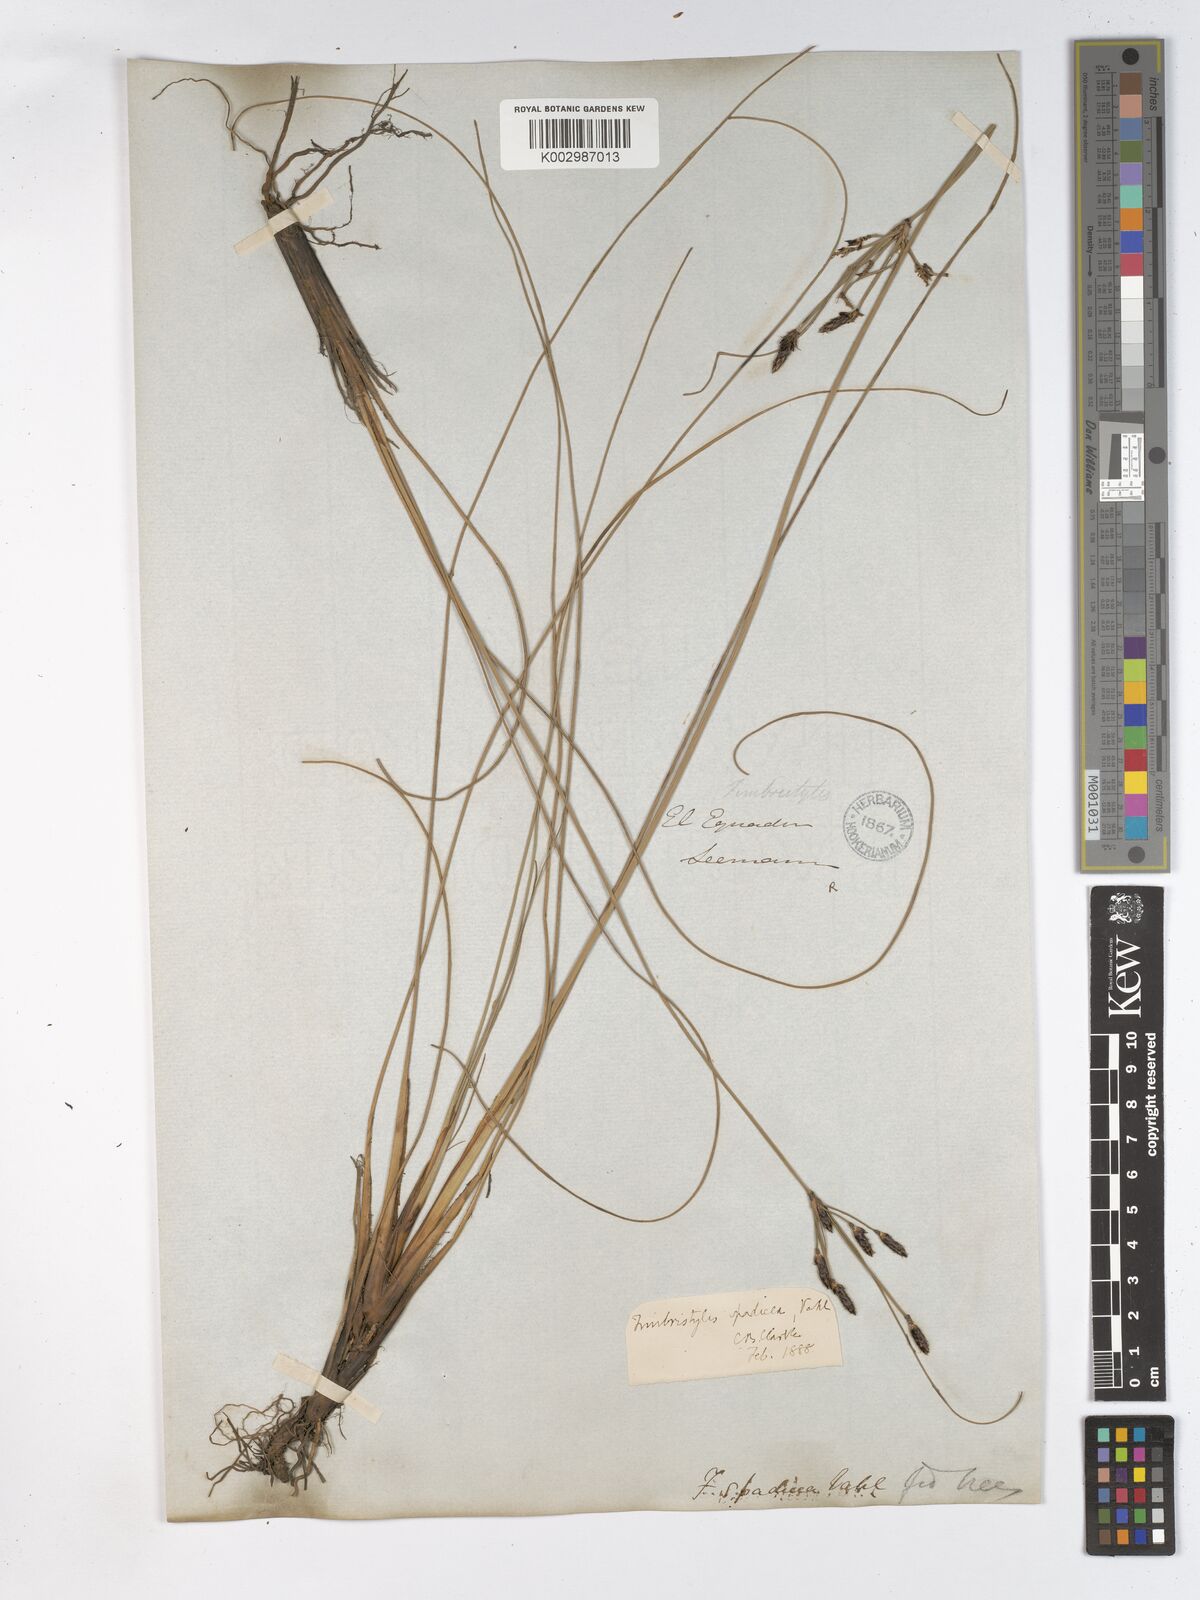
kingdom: Plantae
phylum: Tracheophyta
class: Liliopsida
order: Poales
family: Cyperaceae
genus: Fimbristylis
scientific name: Fimbristylis spadicea
